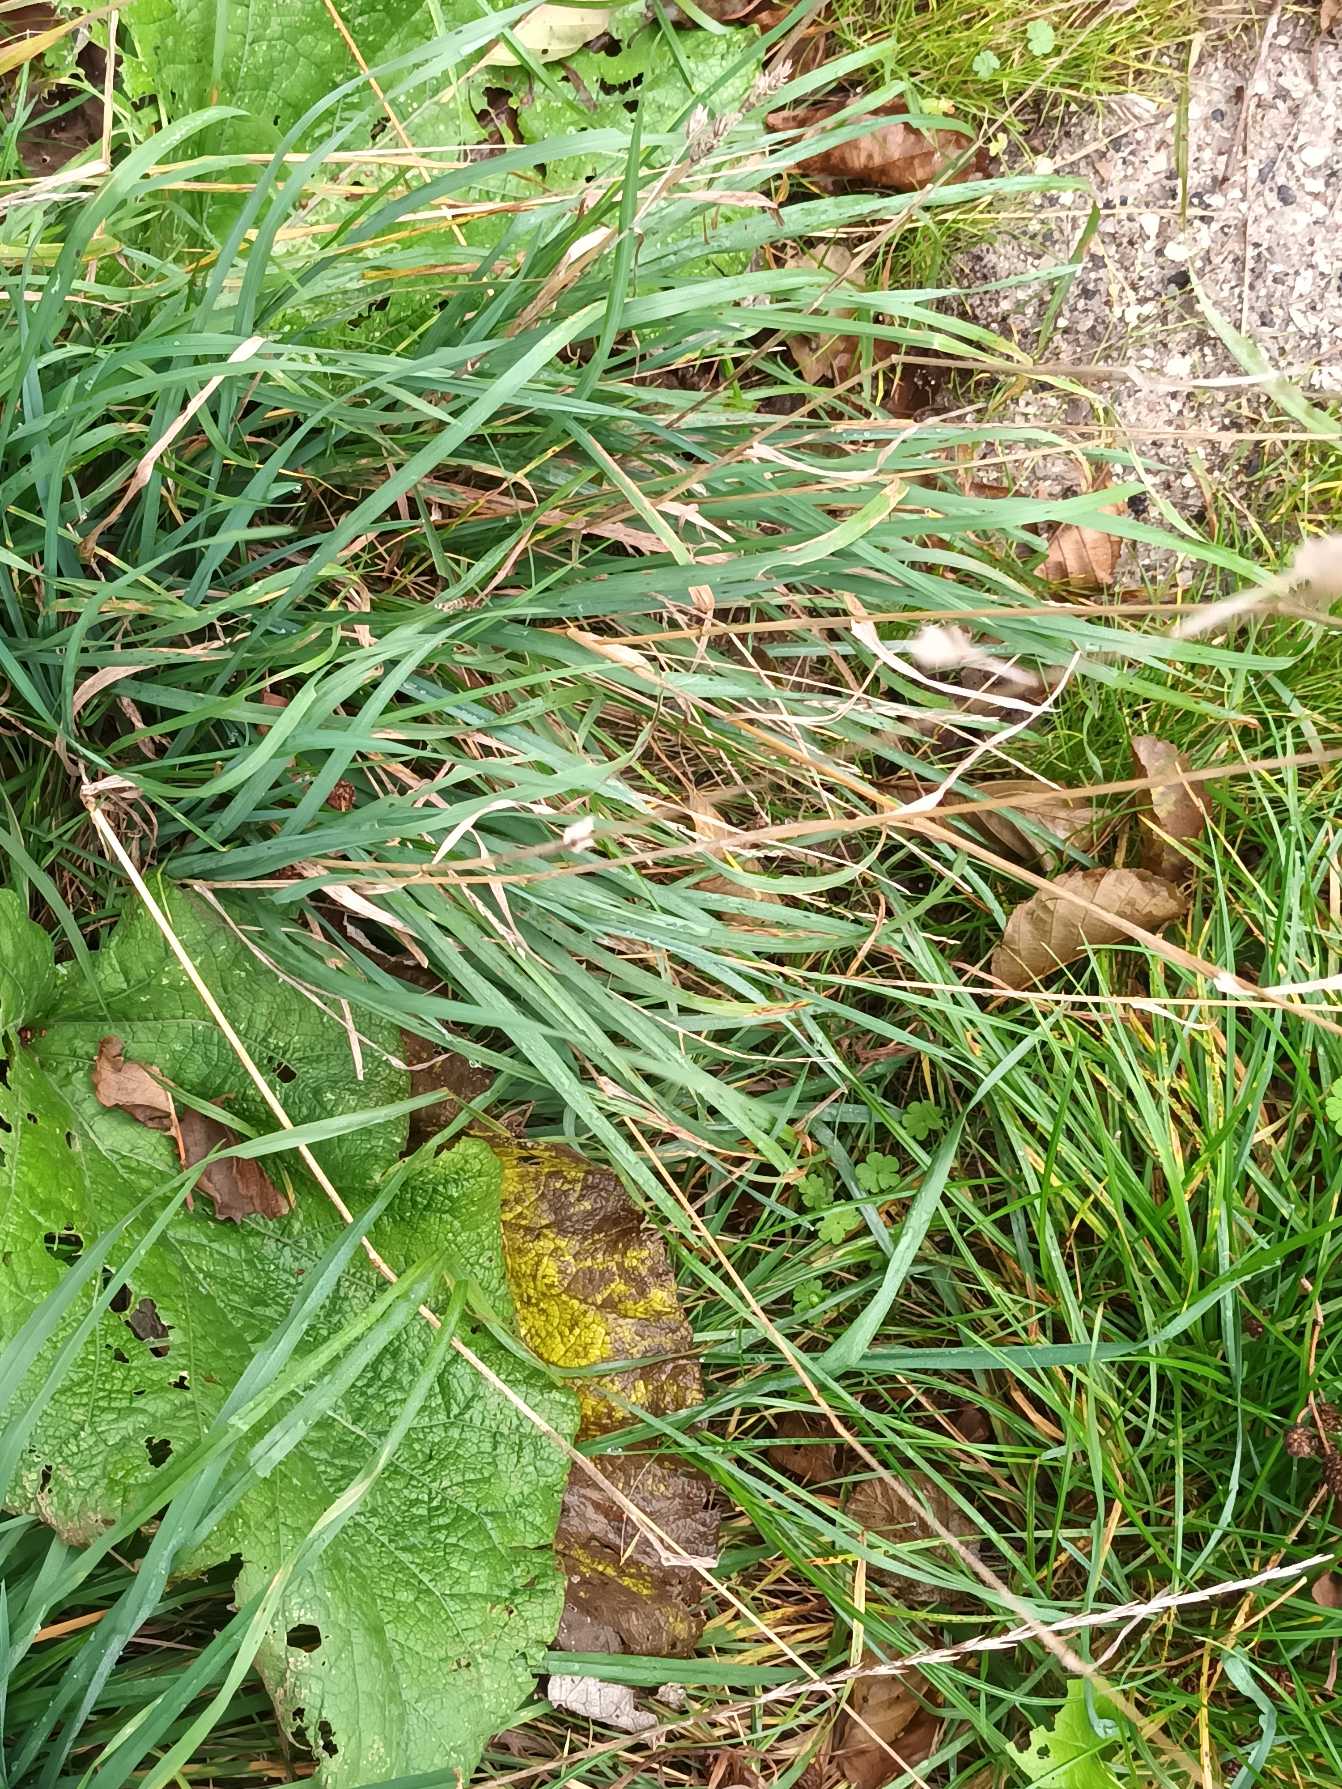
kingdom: Plantae
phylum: Tracheophyta
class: Liliopsida
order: Poales
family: Poaceae
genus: Dactylis
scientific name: Dactylis glomerata
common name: Almindelig hundegræs
